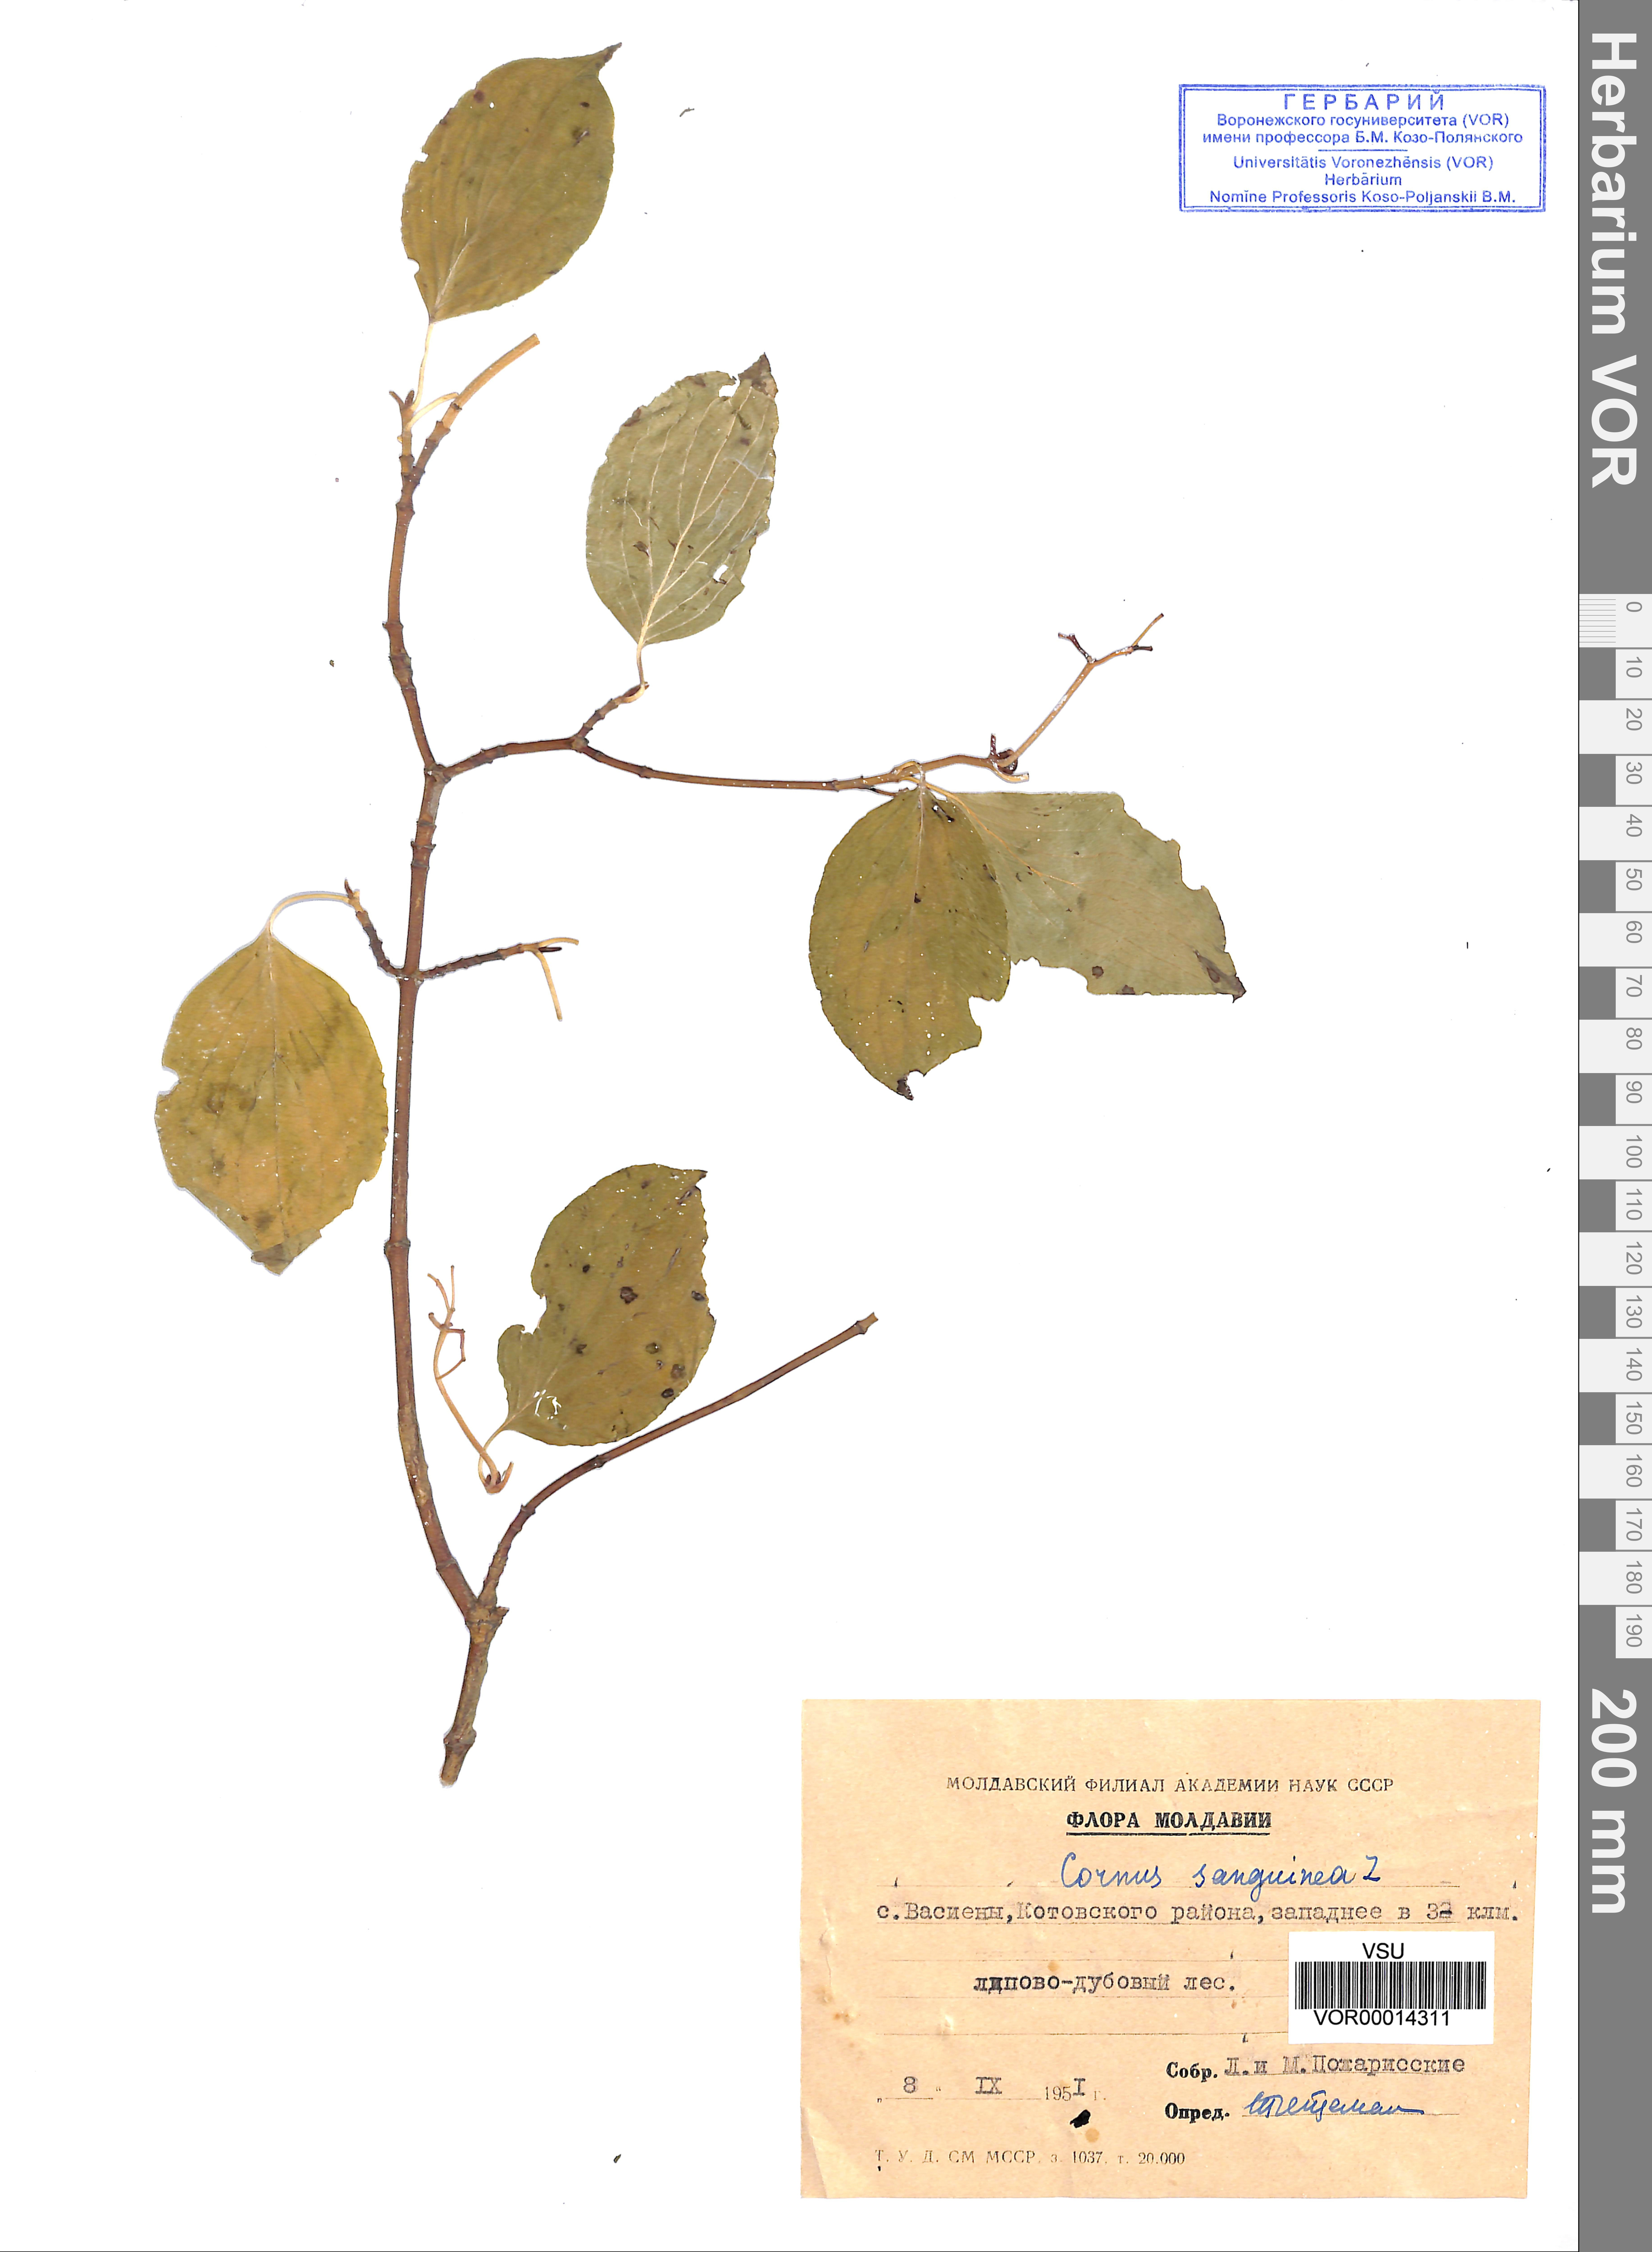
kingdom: Plantae
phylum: Tracheophyta
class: Magnoliopsida
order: Cornales
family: Cornaceae
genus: Cornus
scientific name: Cornus sanguinea
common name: Dogwood
